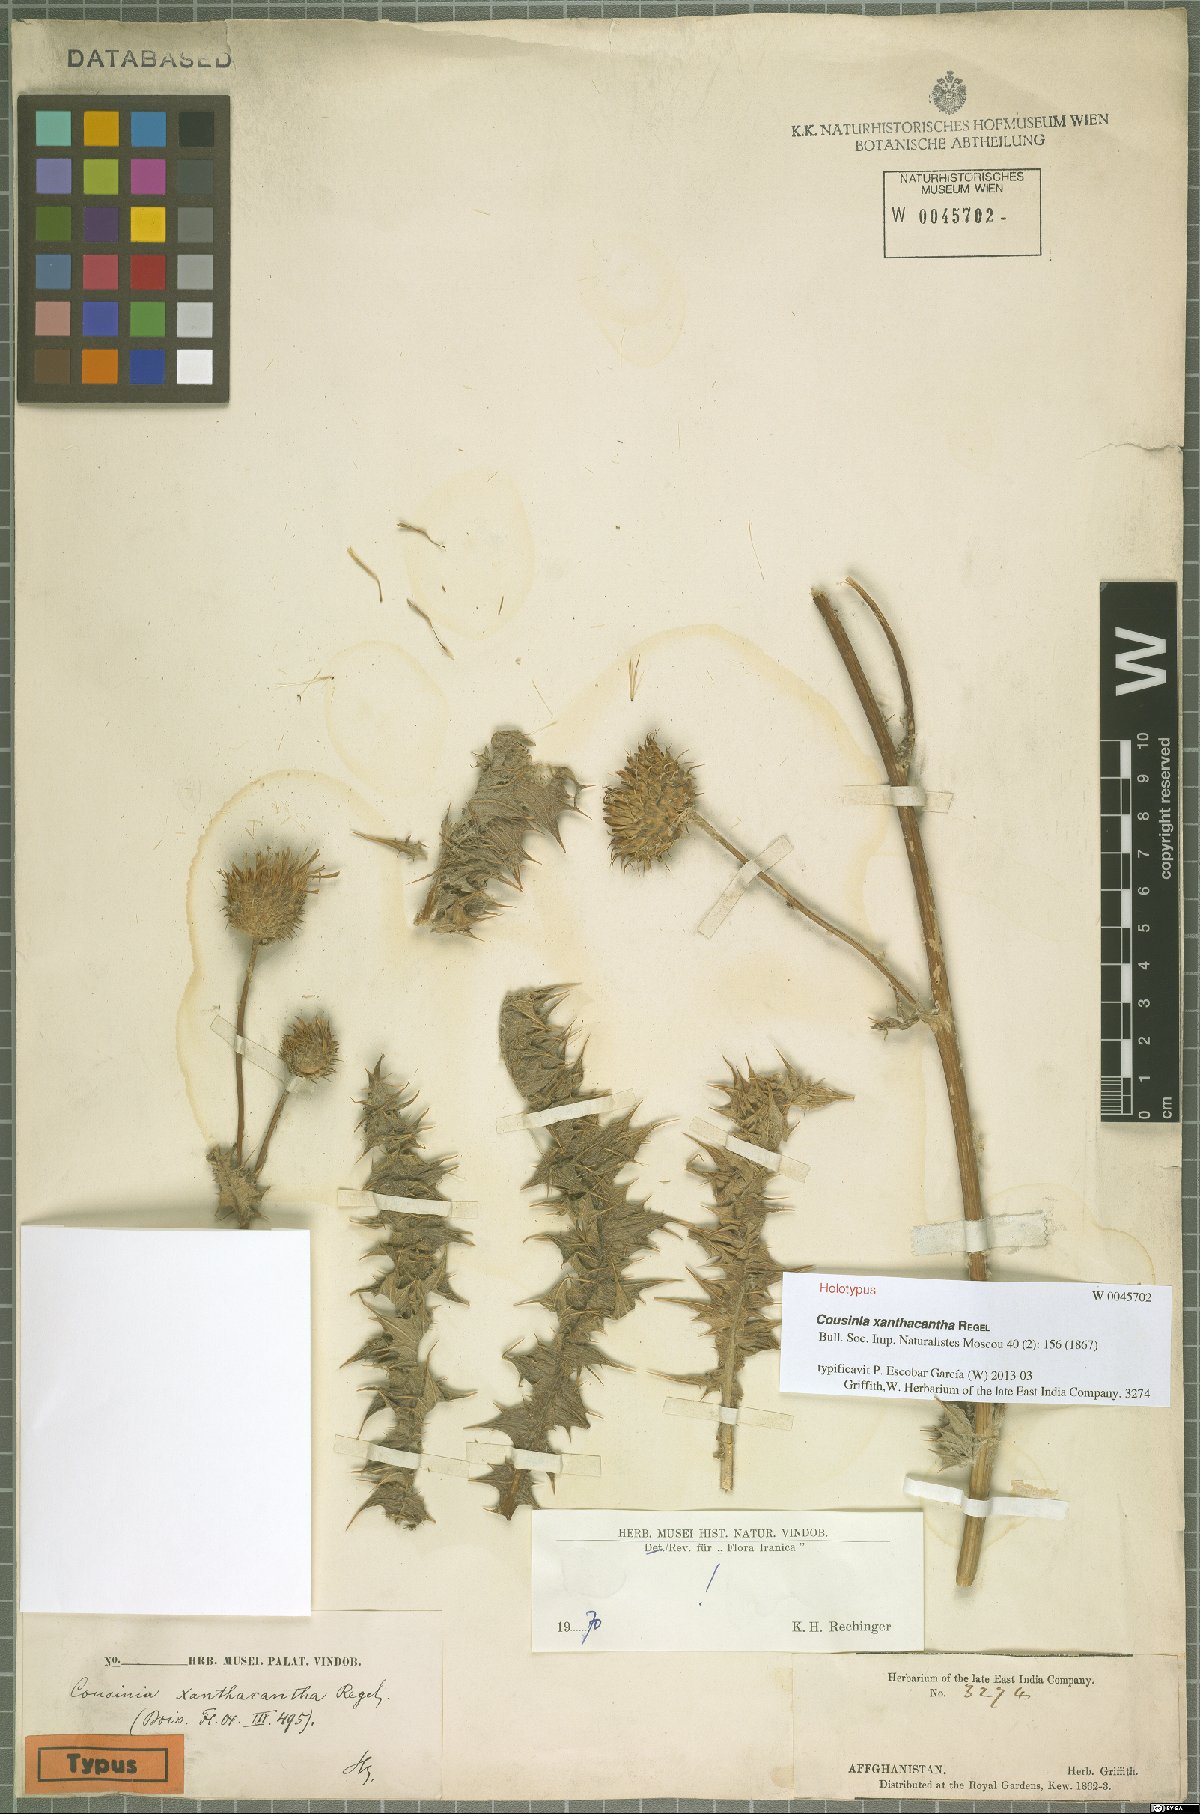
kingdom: Plantae
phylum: Tracheophyta
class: Magnoliopsida
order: Asterales
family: Asteraceae
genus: Cousinia
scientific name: Cousinia xanthacantha
